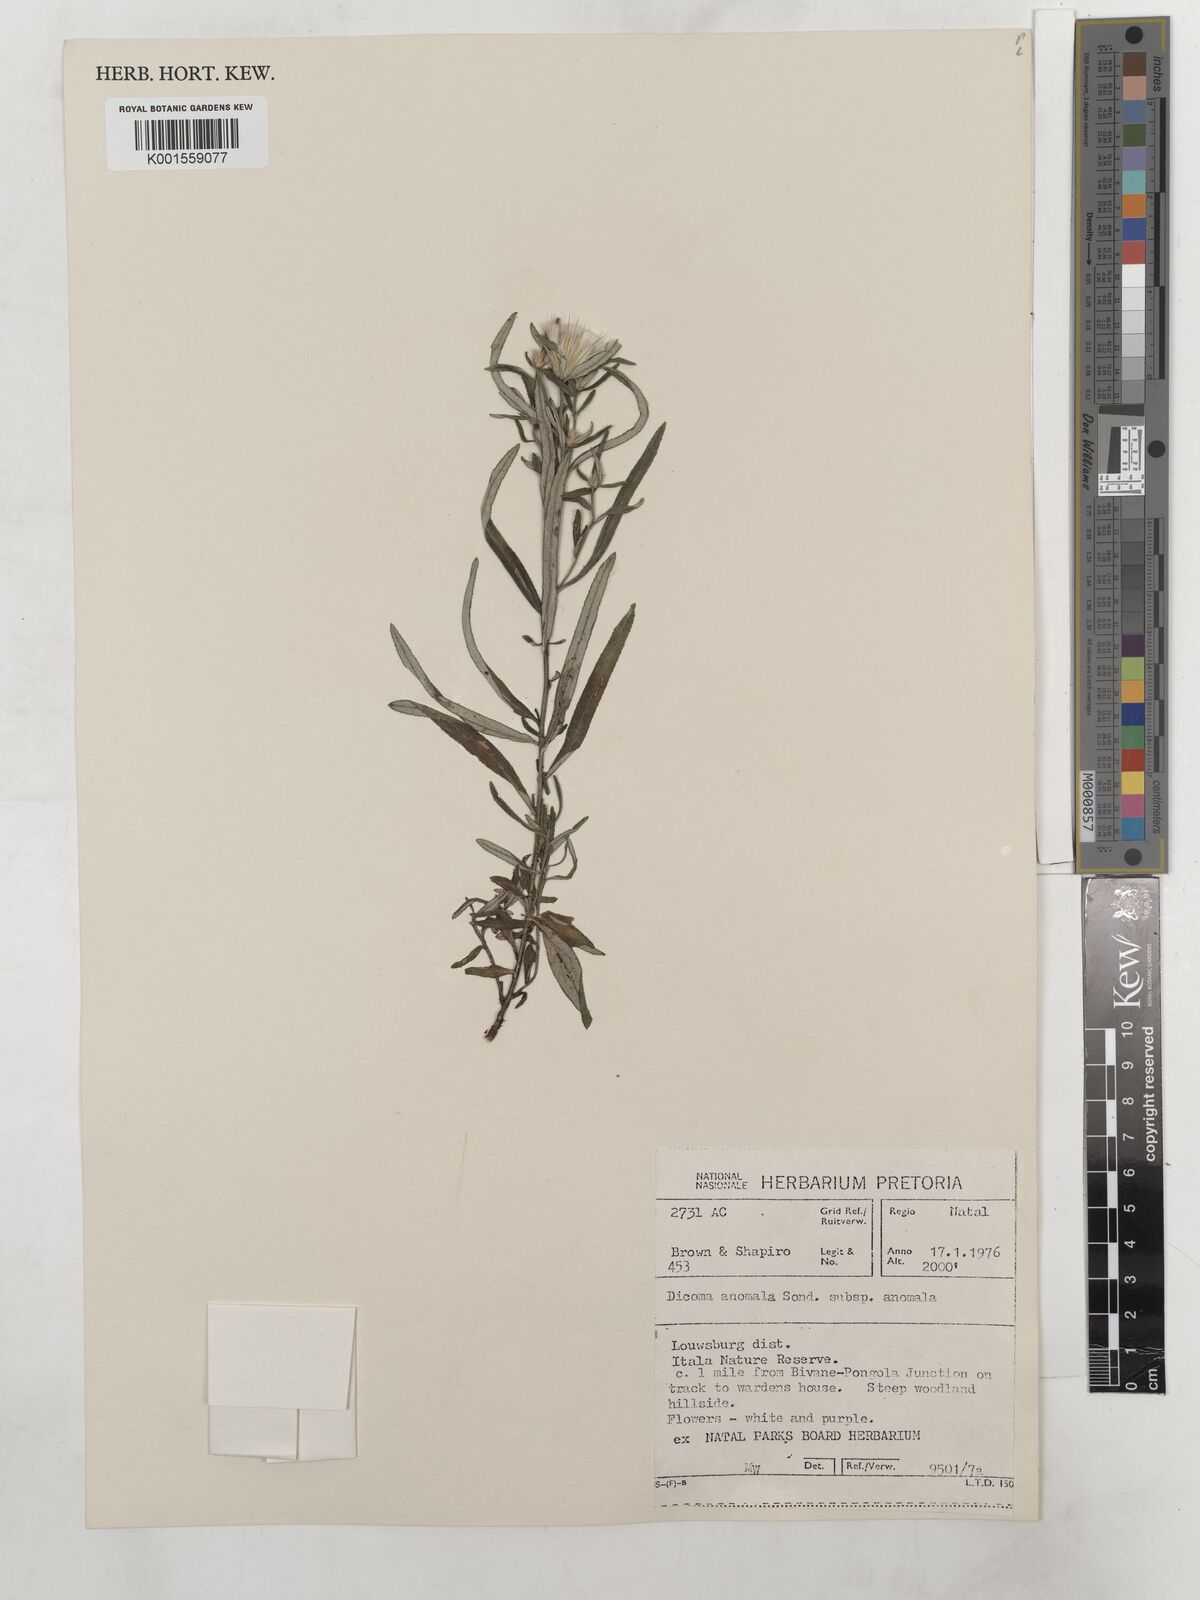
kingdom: Plantae
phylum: Tracheophyta
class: Magnoliopsida
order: Asterales
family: Asteraceae
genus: Dicoma
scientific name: Dicoma anomala
